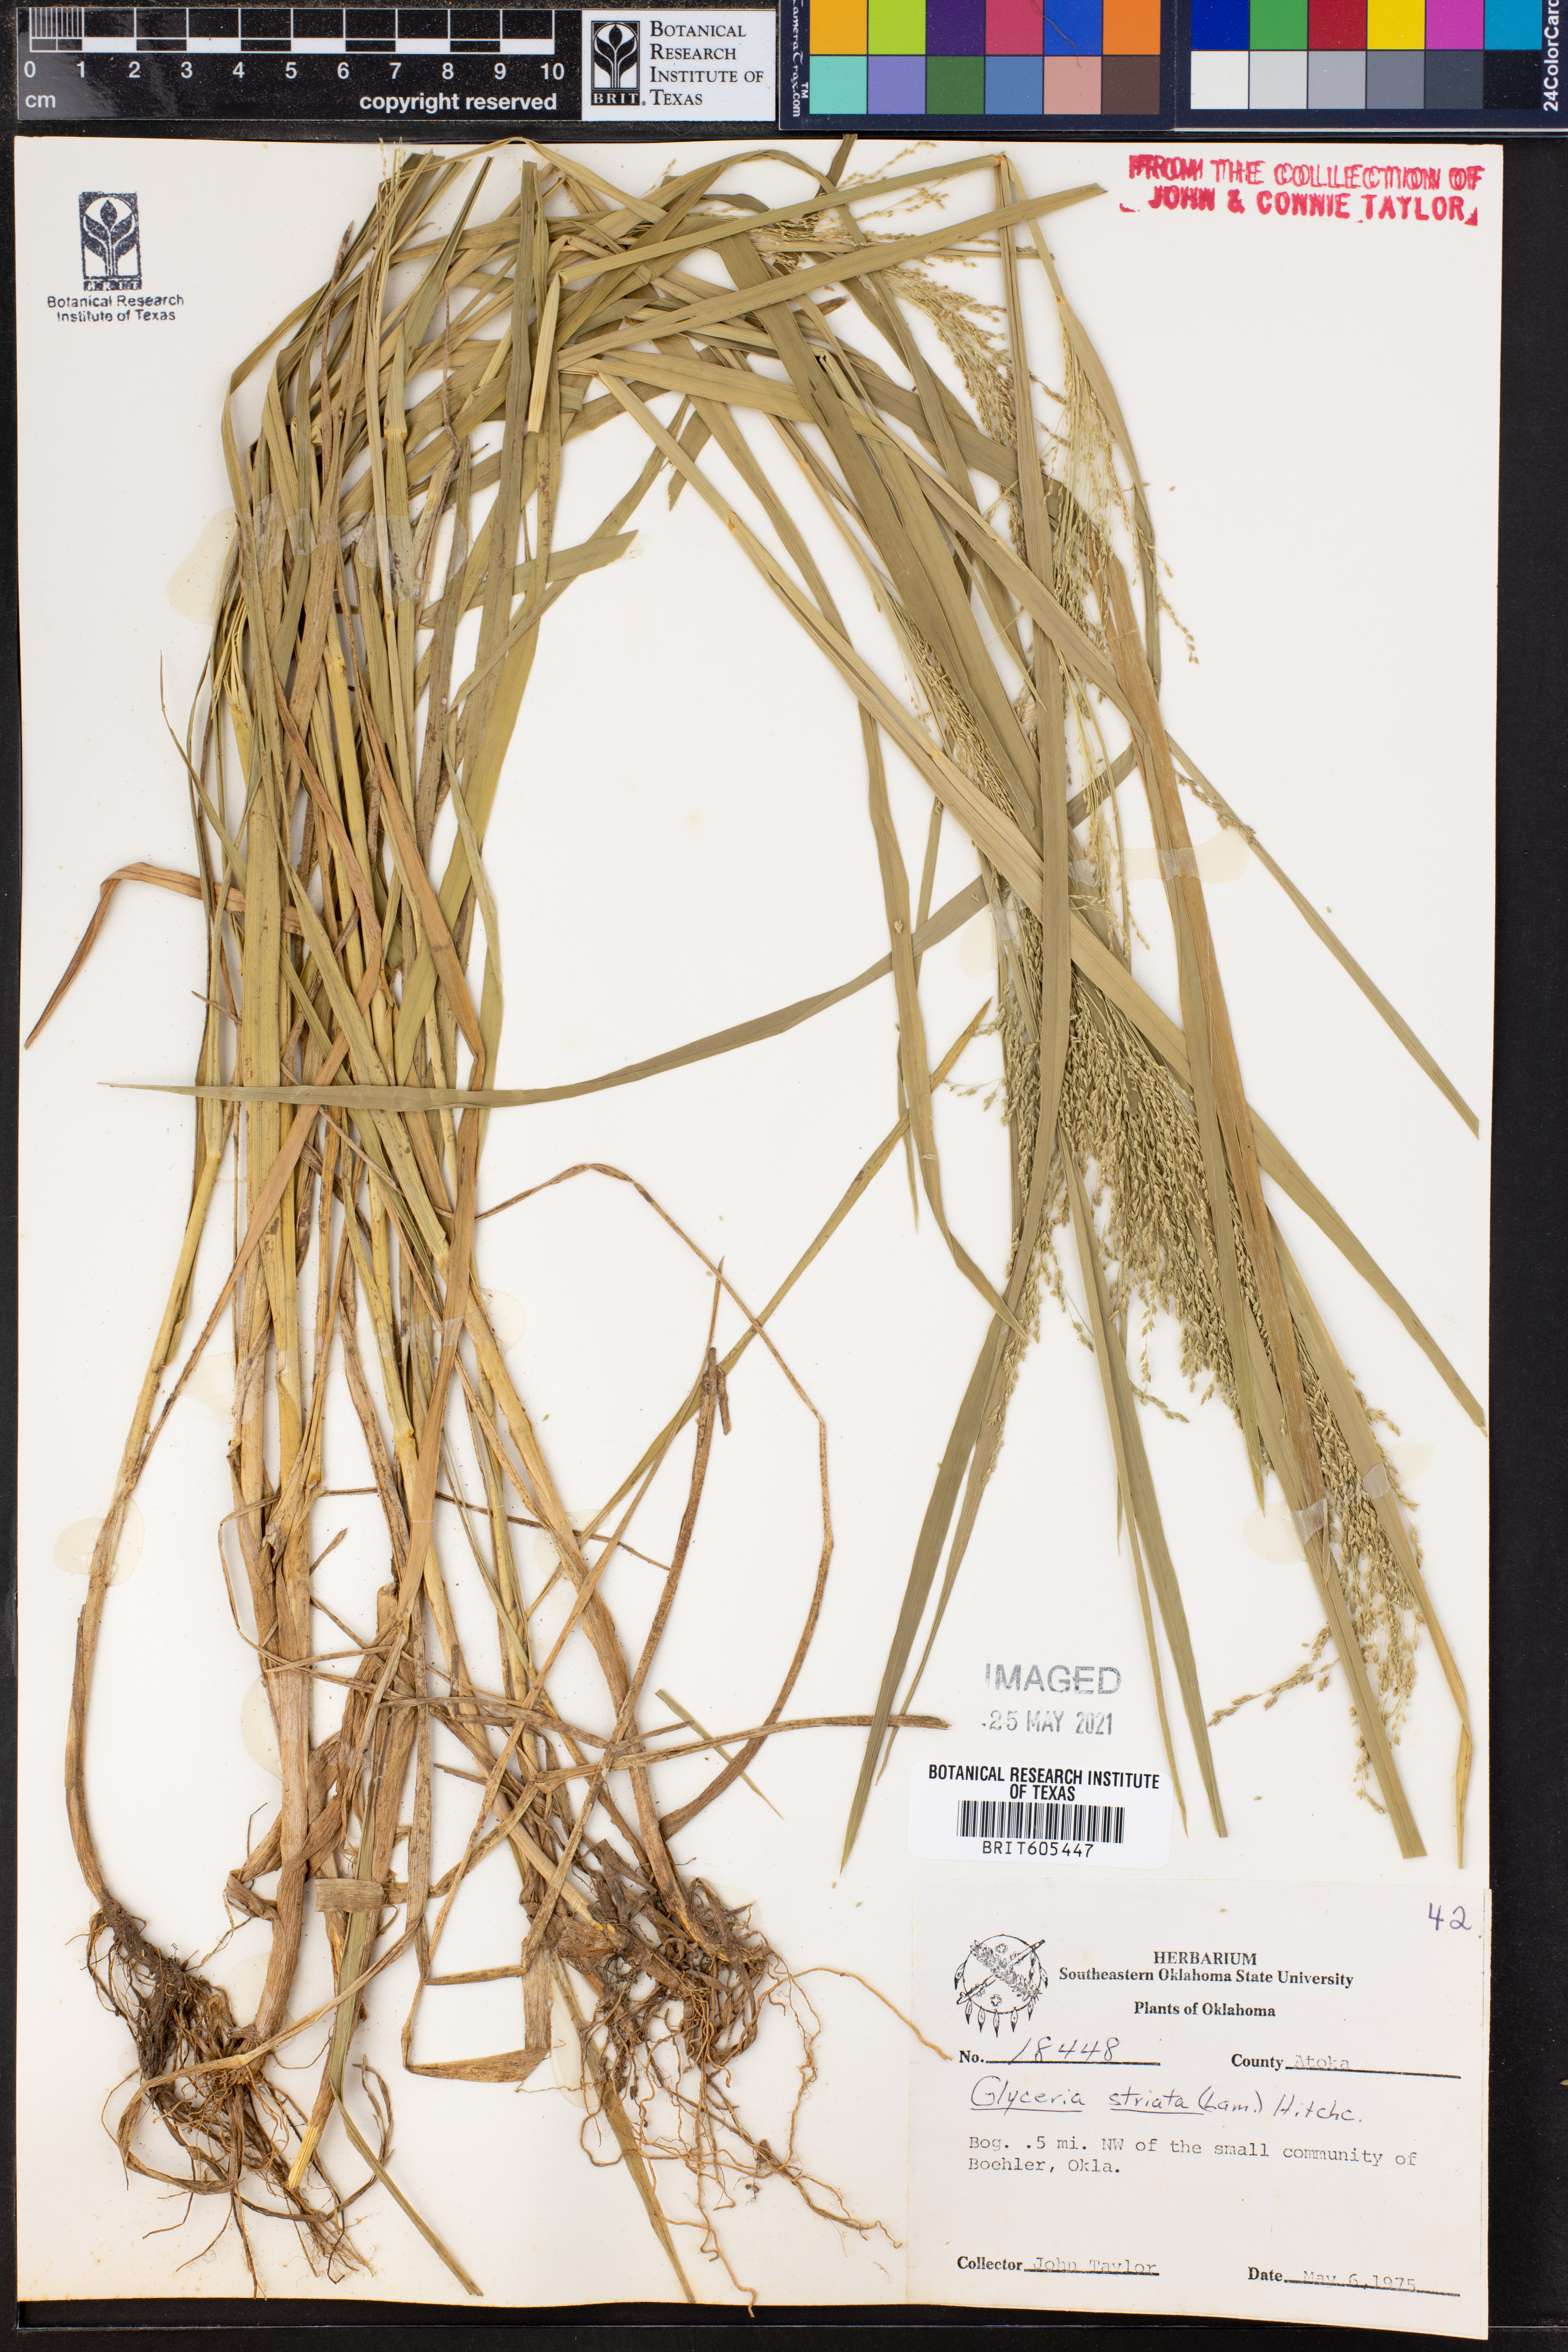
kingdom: Plantae
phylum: Tracheophyta
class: Liliopsida
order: Poales
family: Poaceae
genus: Glyceria
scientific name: Glyceria striata
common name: Fowl manna grass
